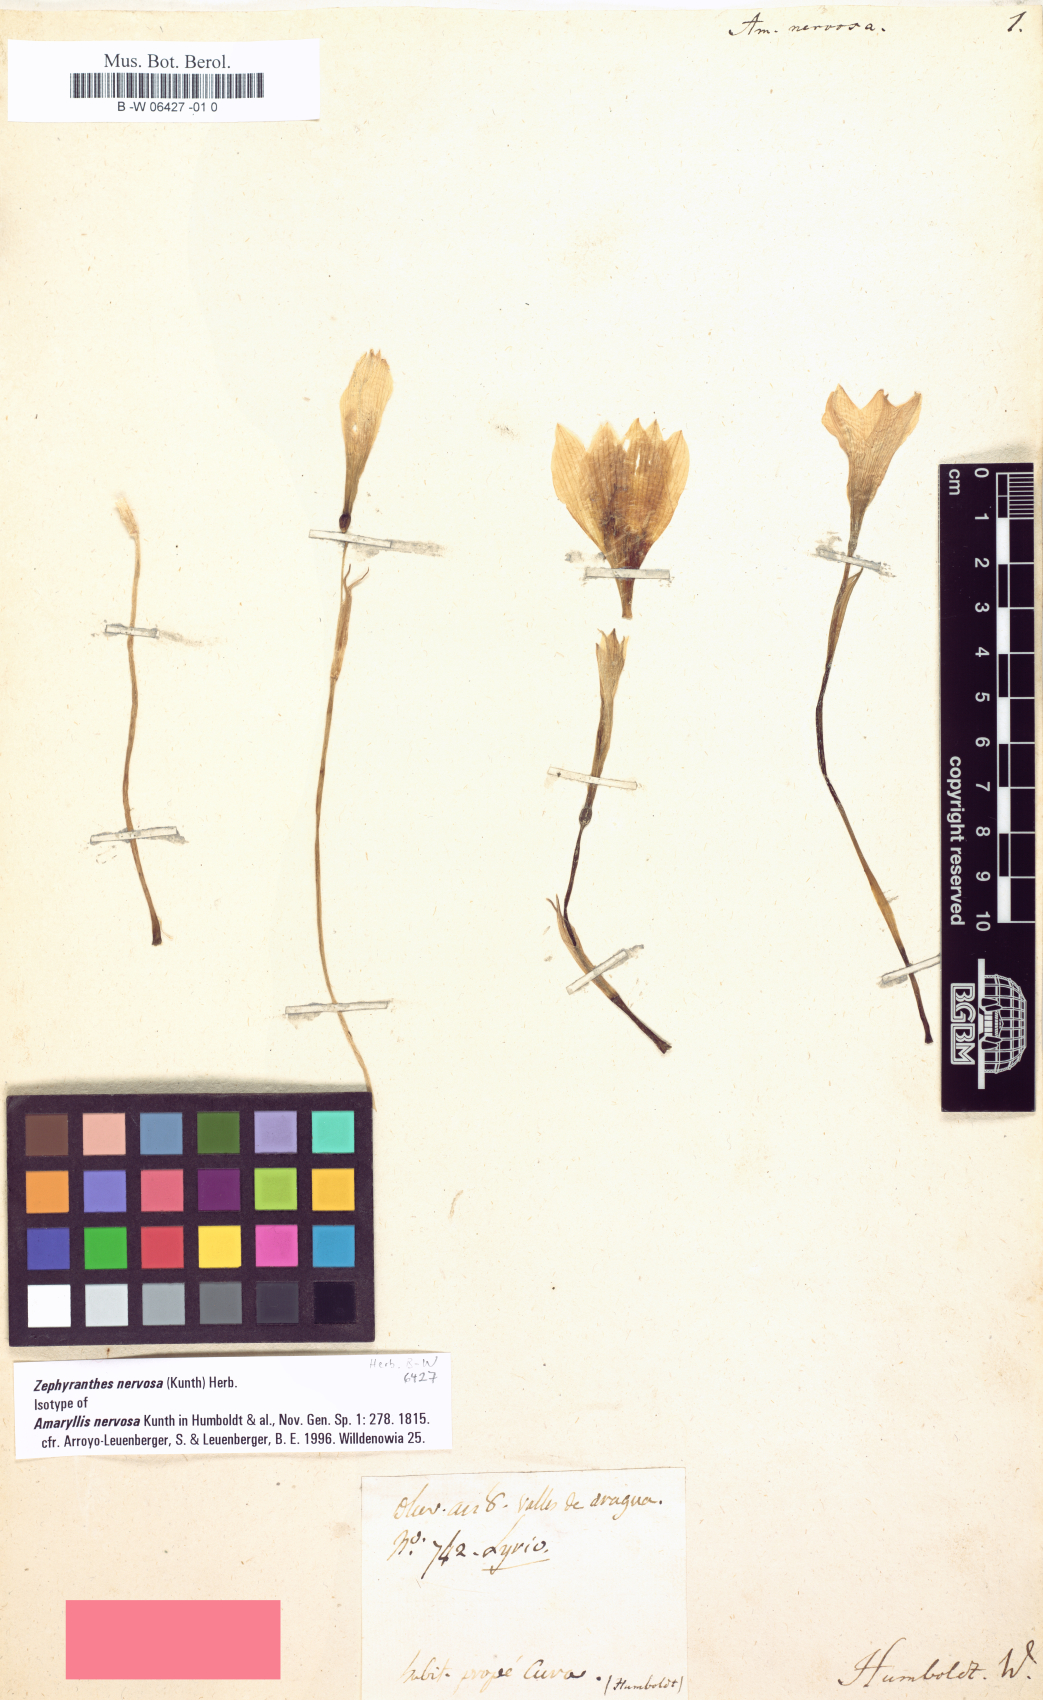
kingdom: Plantae
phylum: Tracheophyta
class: Liliopsida
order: Asparagales
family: Amaryllidaceae
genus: Zephyranthes
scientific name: Zephyranthes nervosa
